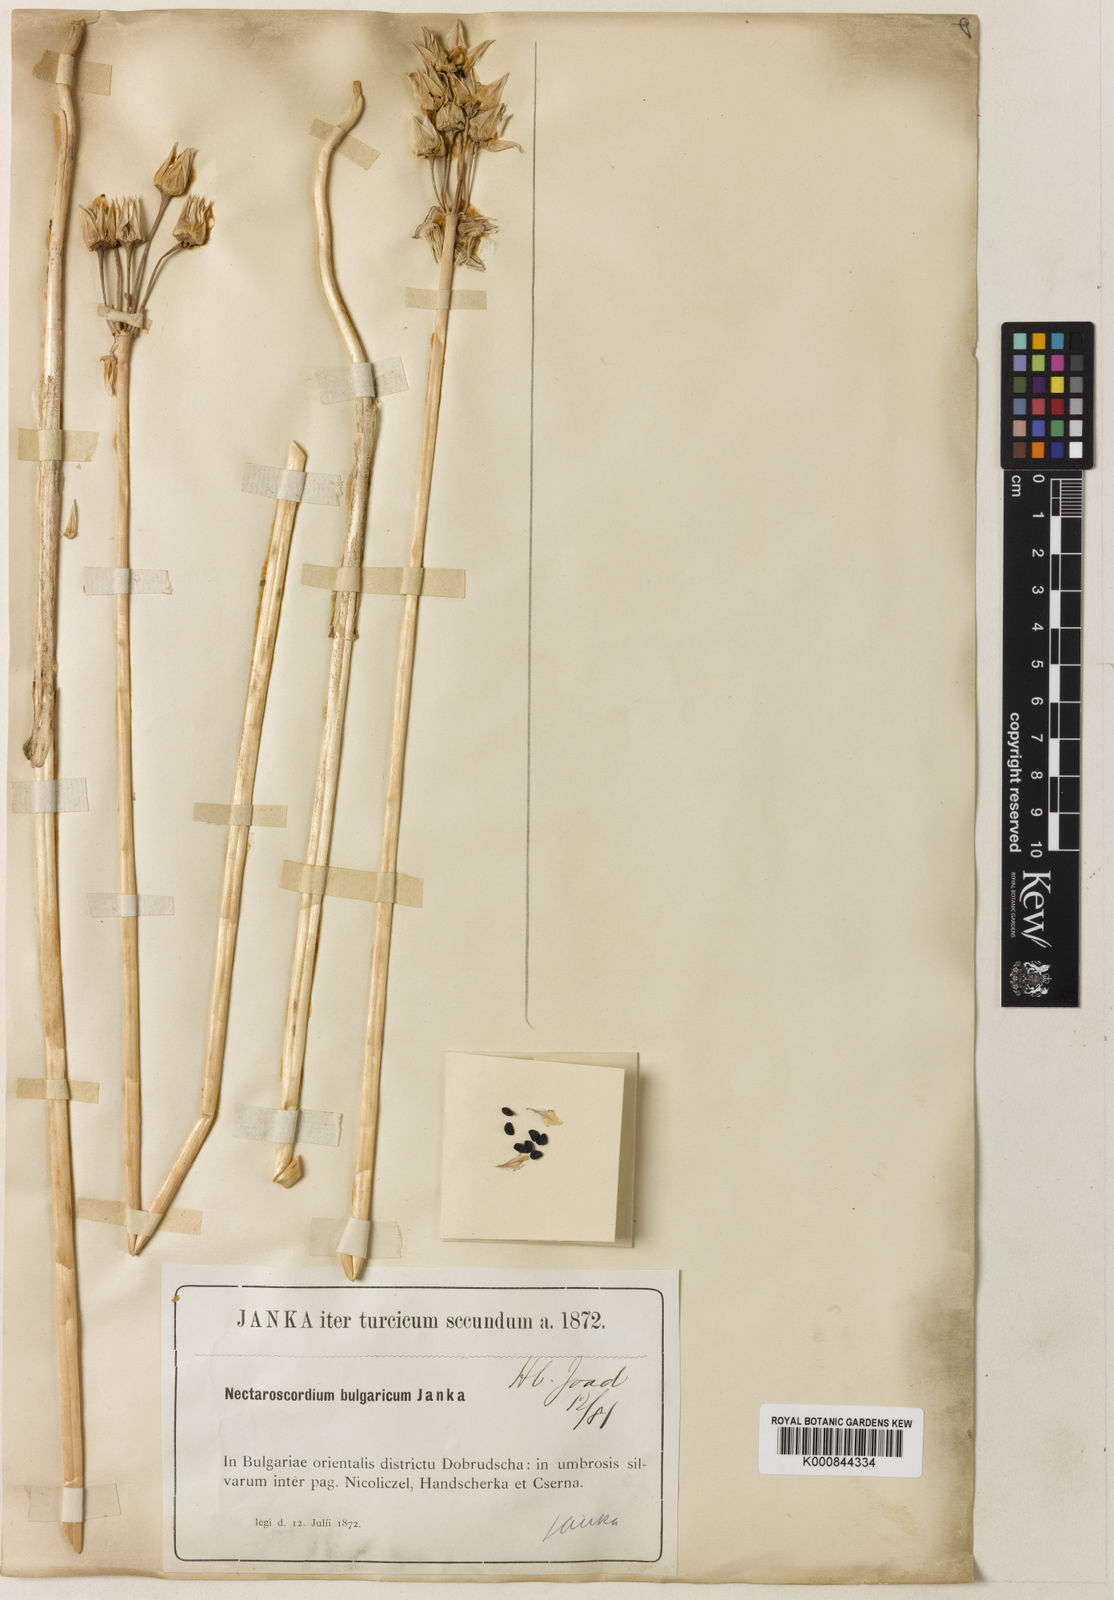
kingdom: Plantae
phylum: Tracheophyta
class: Liliopsida
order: Asparagales
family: Amaryllidaceae
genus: Allium
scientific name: Allium siculum
